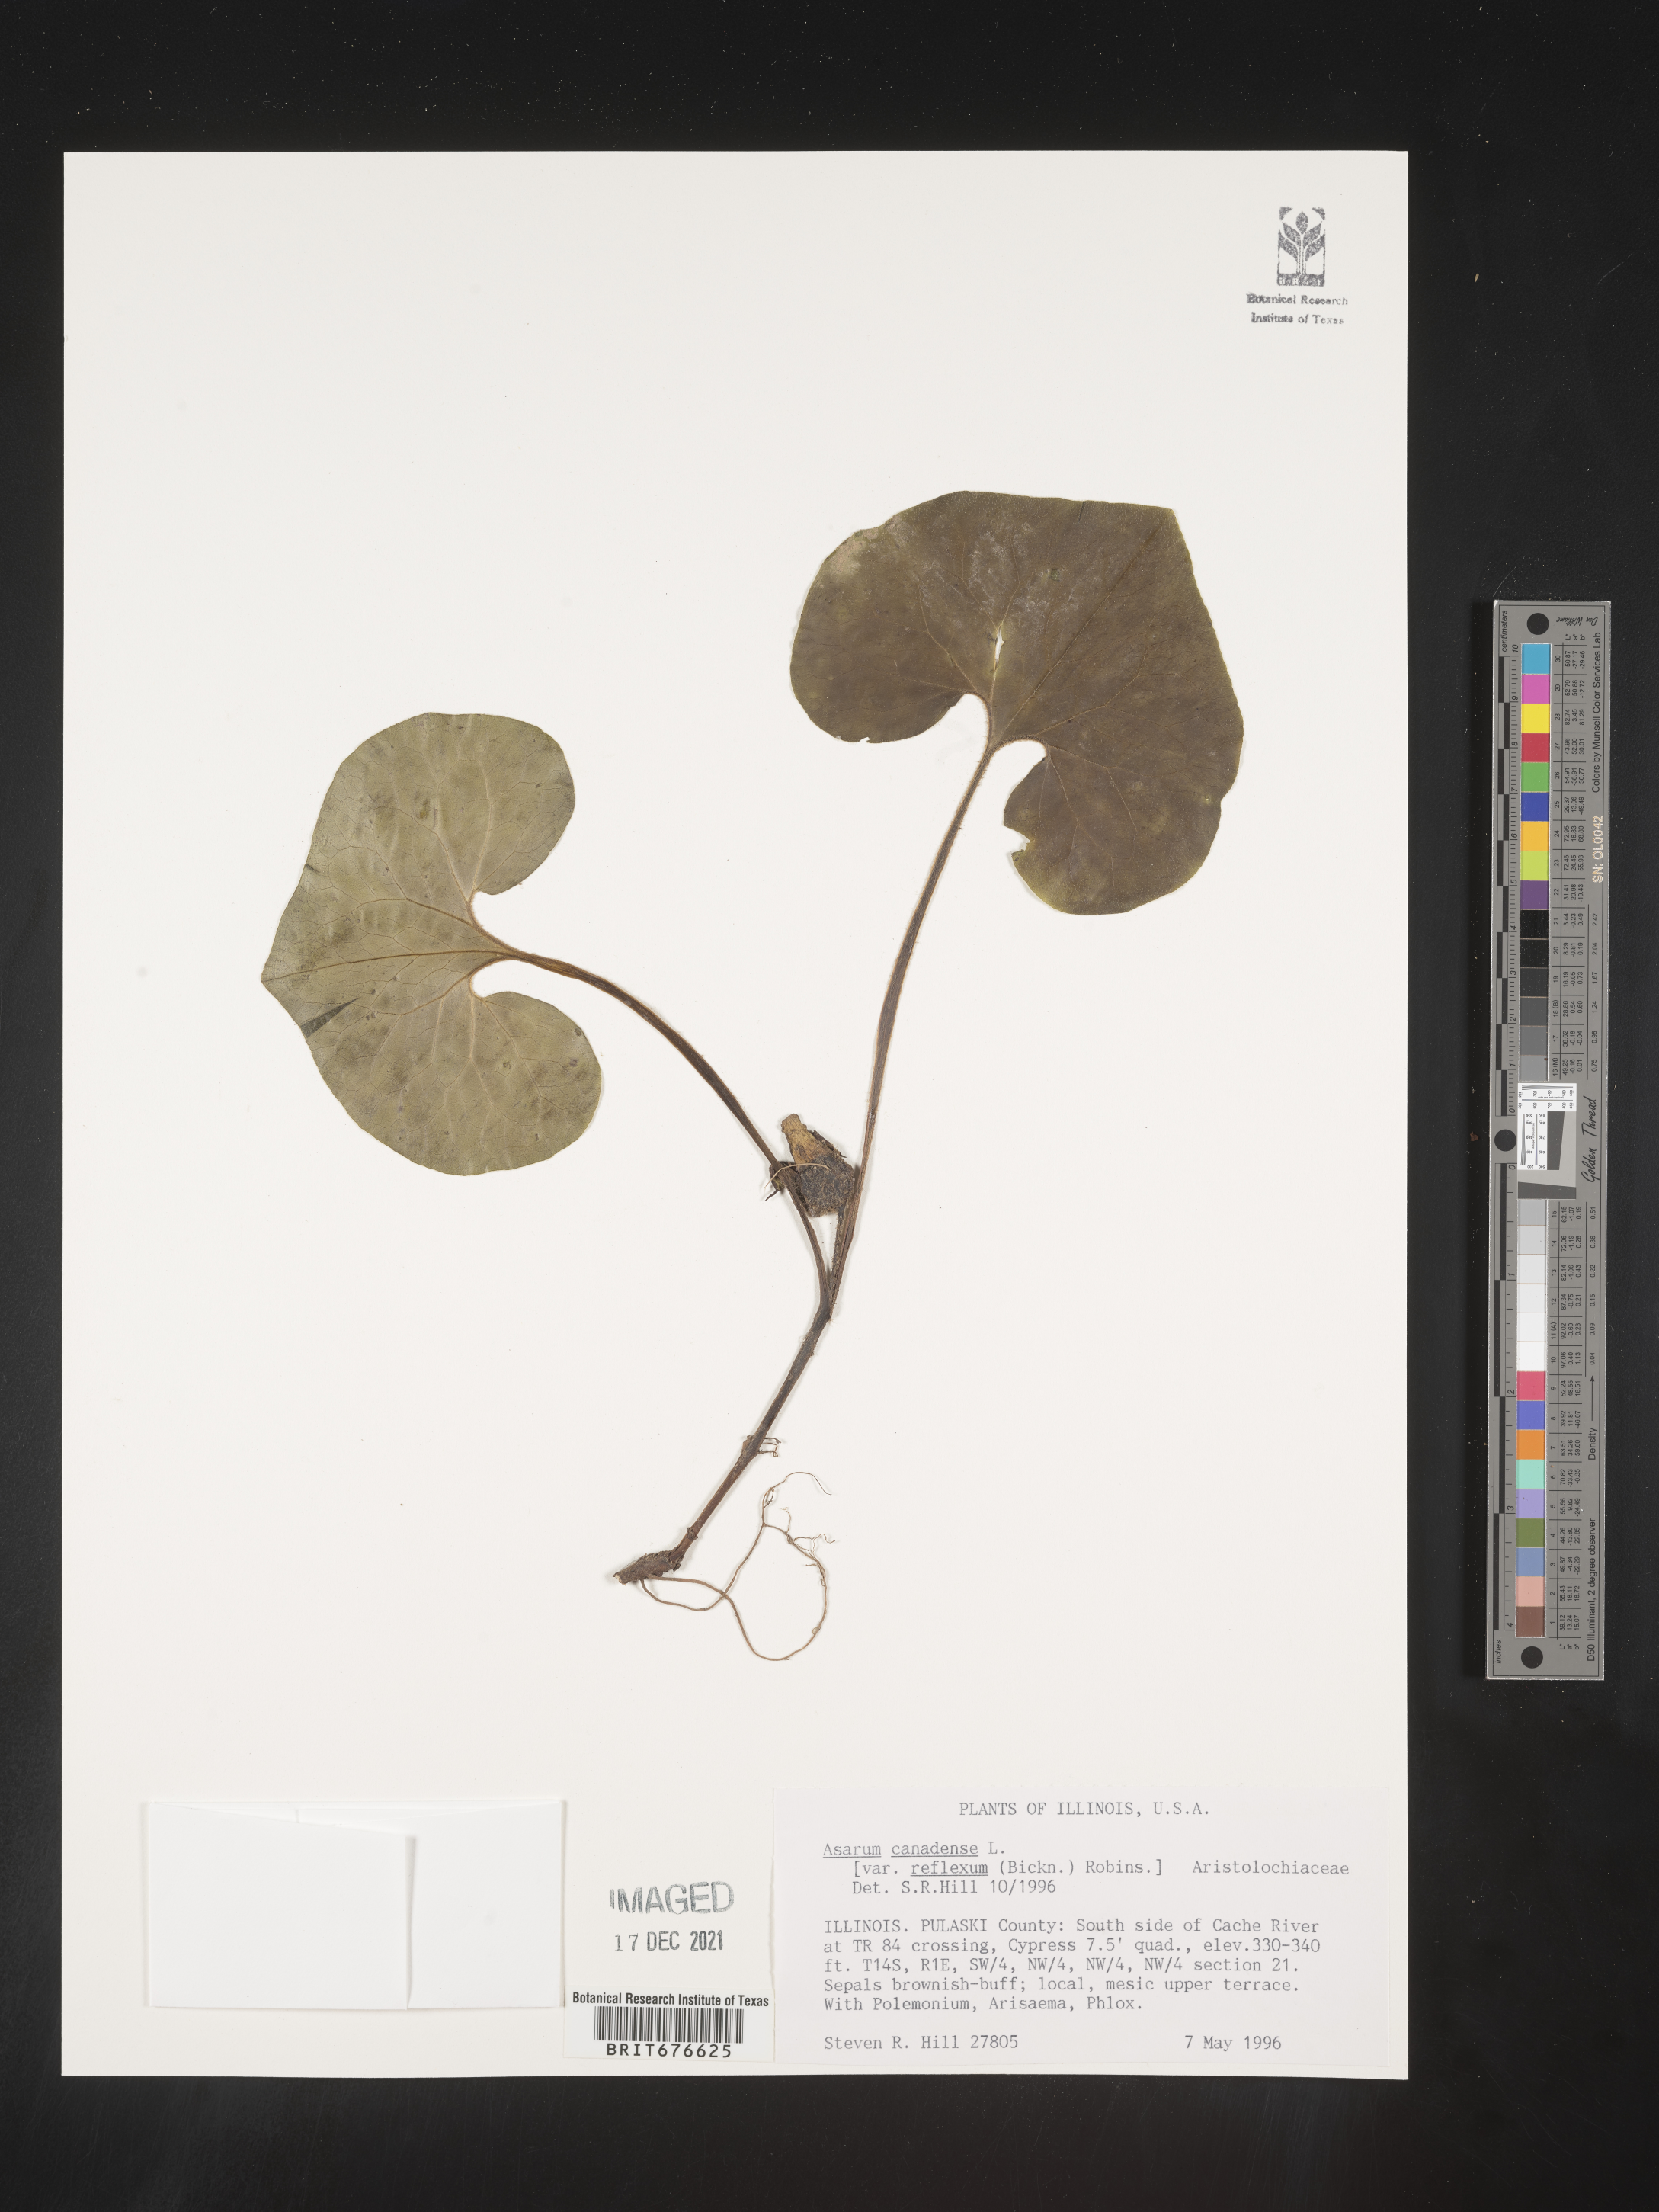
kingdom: Plantae
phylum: Tracheophyta
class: Magnoliopsida
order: Piperales
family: Aristolochiaceae
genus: Asarum
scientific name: Asarum canadense
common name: Wild ginger
